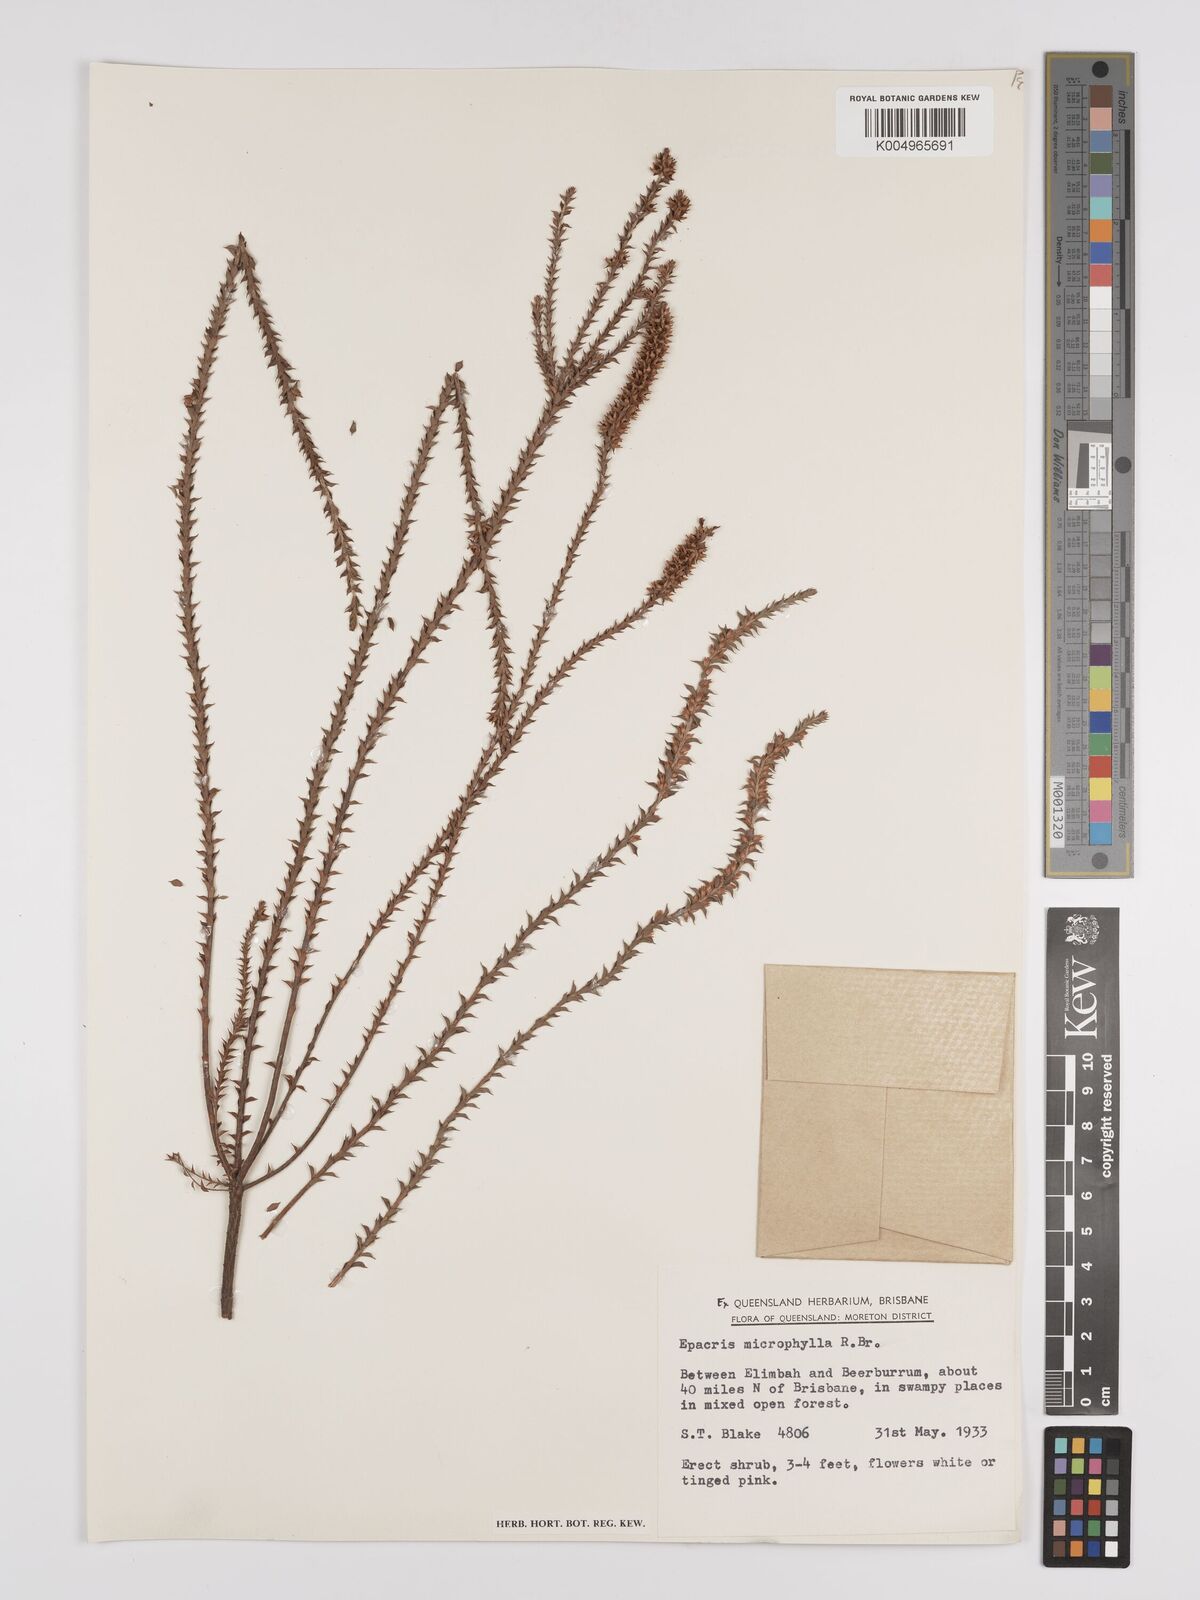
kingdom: Plantae
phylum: Tracheophyta
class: Magnoliopsida
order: Ericales
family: Ericaceae
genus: Epacris
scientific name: Epacris
